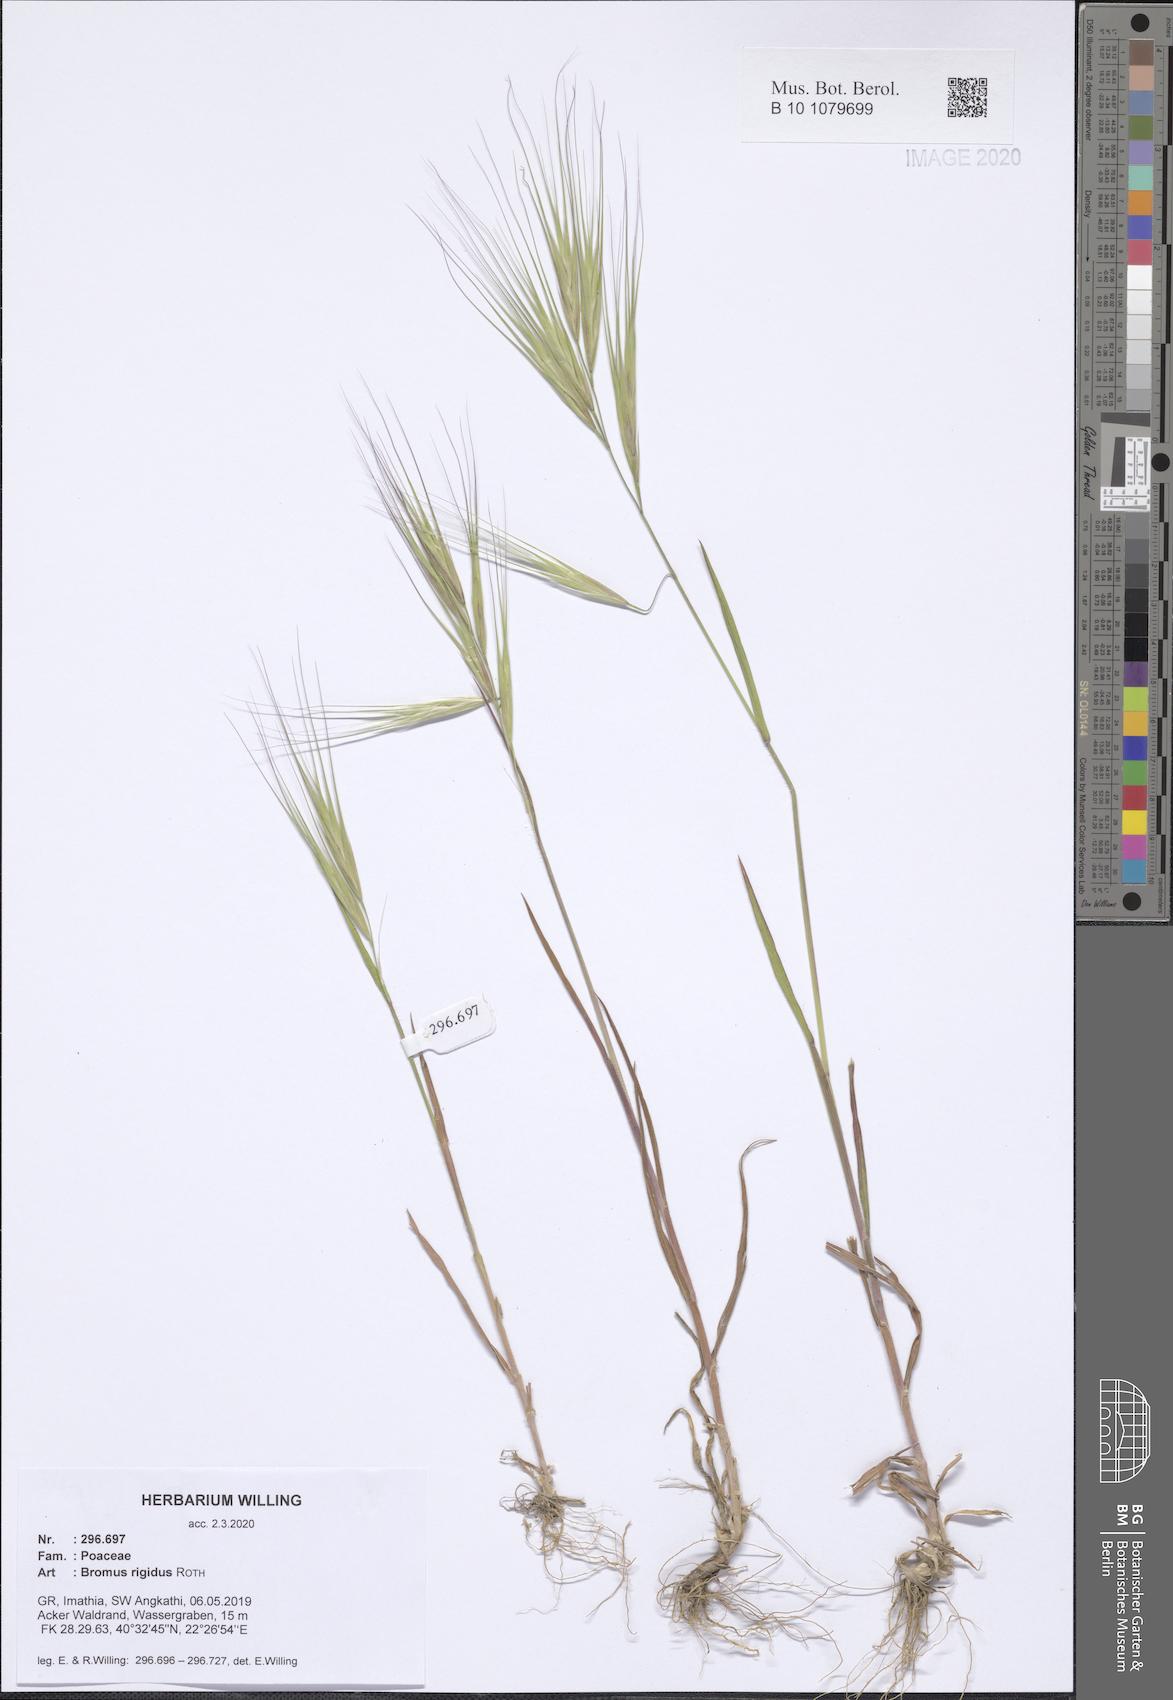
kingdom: Plantae
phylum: Tracheophyta
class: Liliopsida
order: Poales
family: Poaceae
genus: Bromus
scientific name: Bromus rigidus
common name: Ripgut brome
